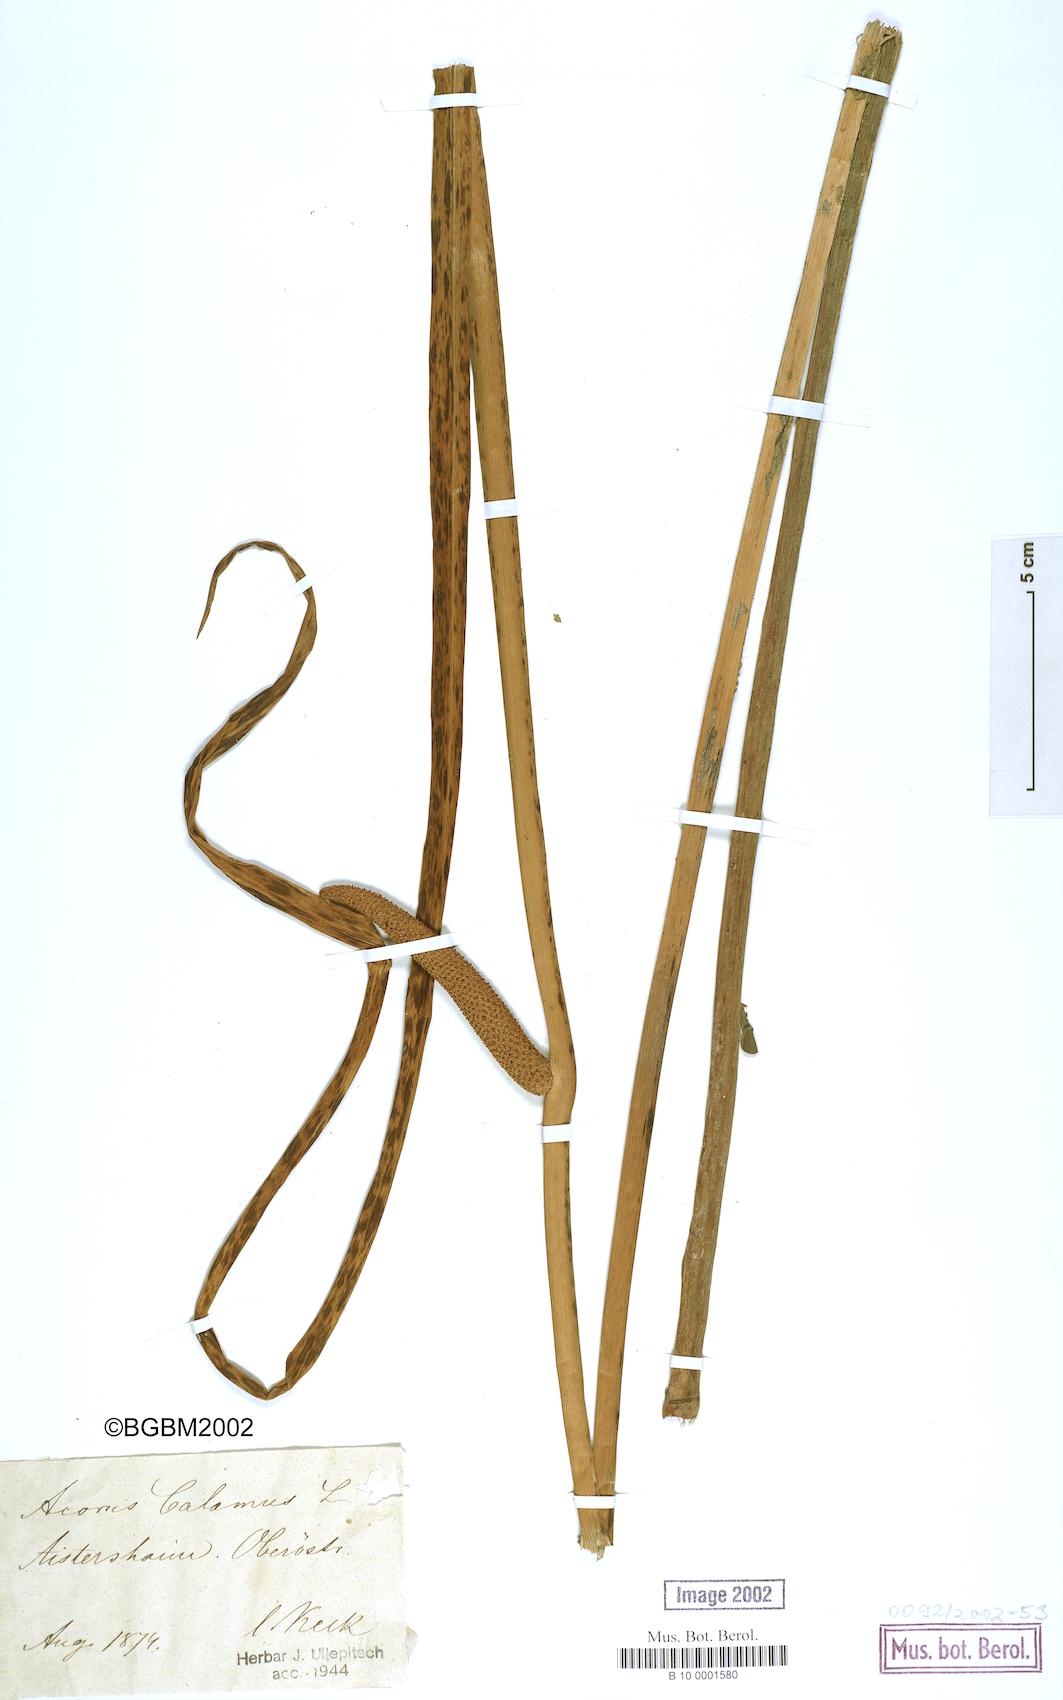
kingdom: Plantae
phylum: Tracheophyta
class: Liliopsida
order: Acorales
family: Acoraceae
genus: Acorus
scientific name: Acorus calamus
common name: Sweet-flag
